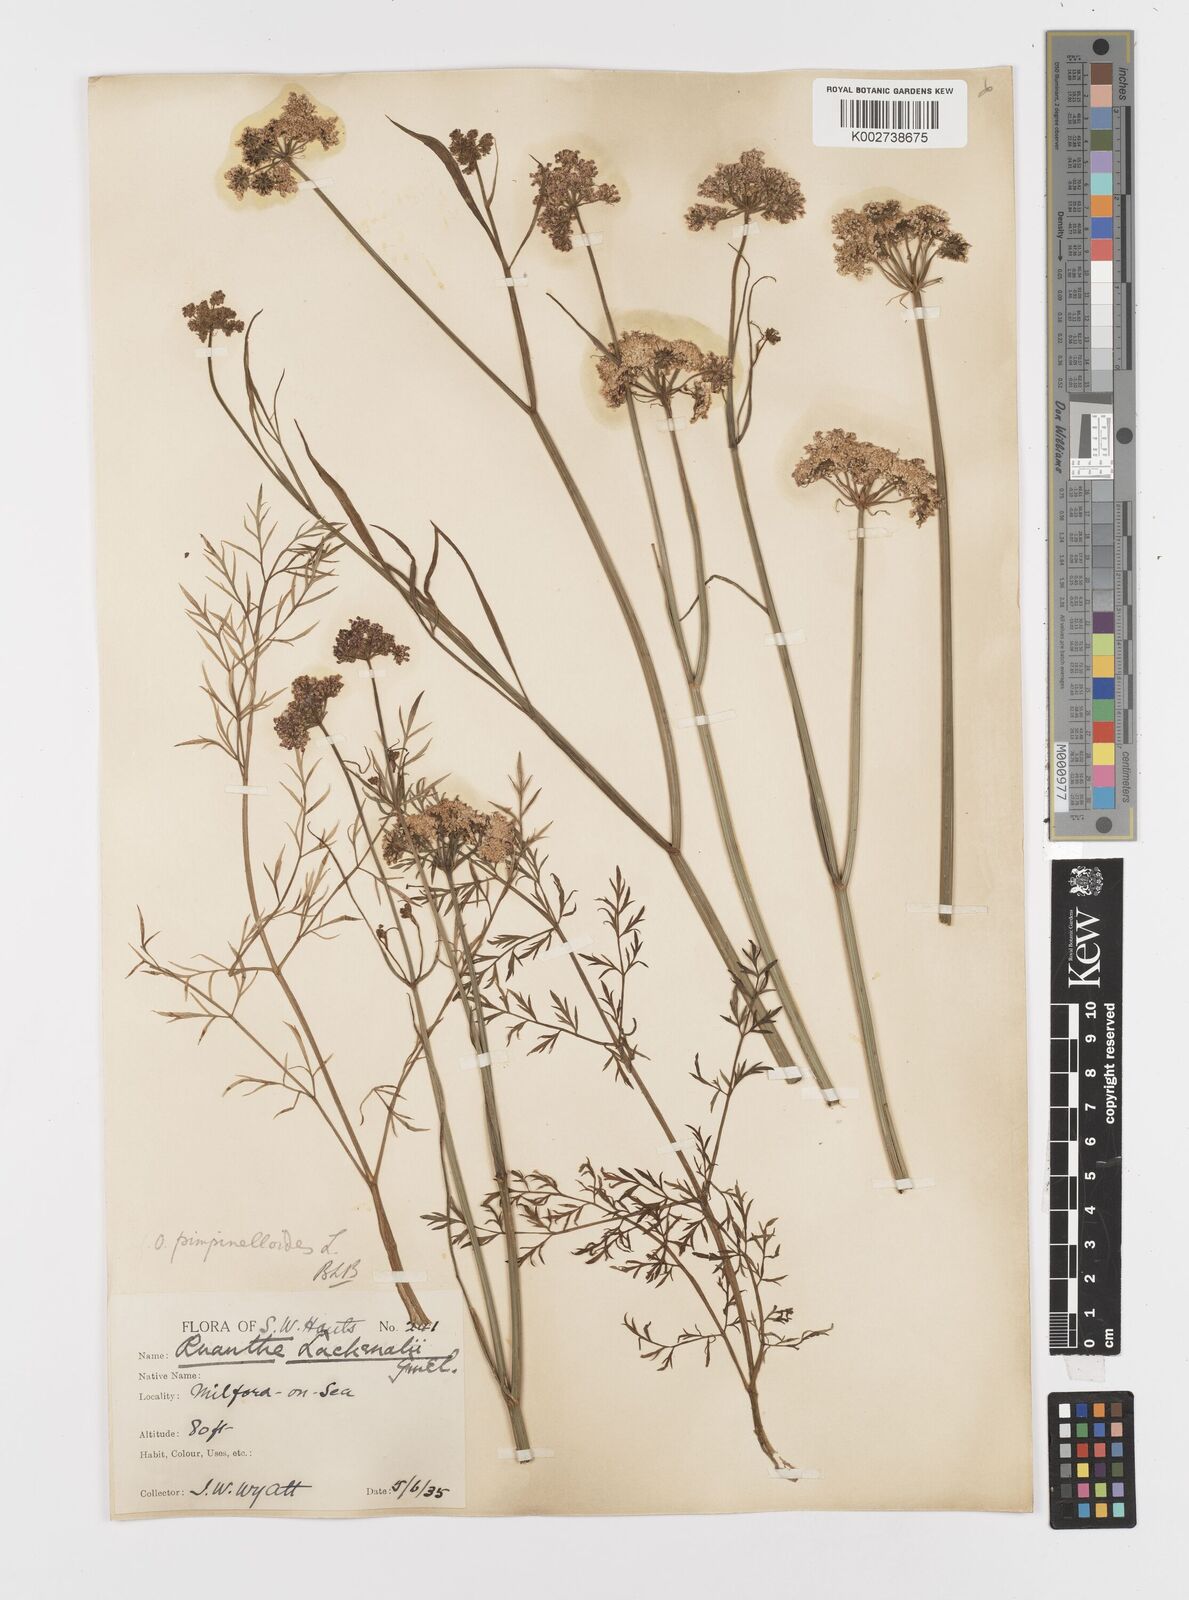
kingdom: Plantae
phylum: Tracheophyta
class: Magnoliopsida
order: Apiales
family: Apiaceae
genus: Oenanthe
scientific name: Oenanthe pimpinelloides
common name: Corky-fruited water-dropwort
